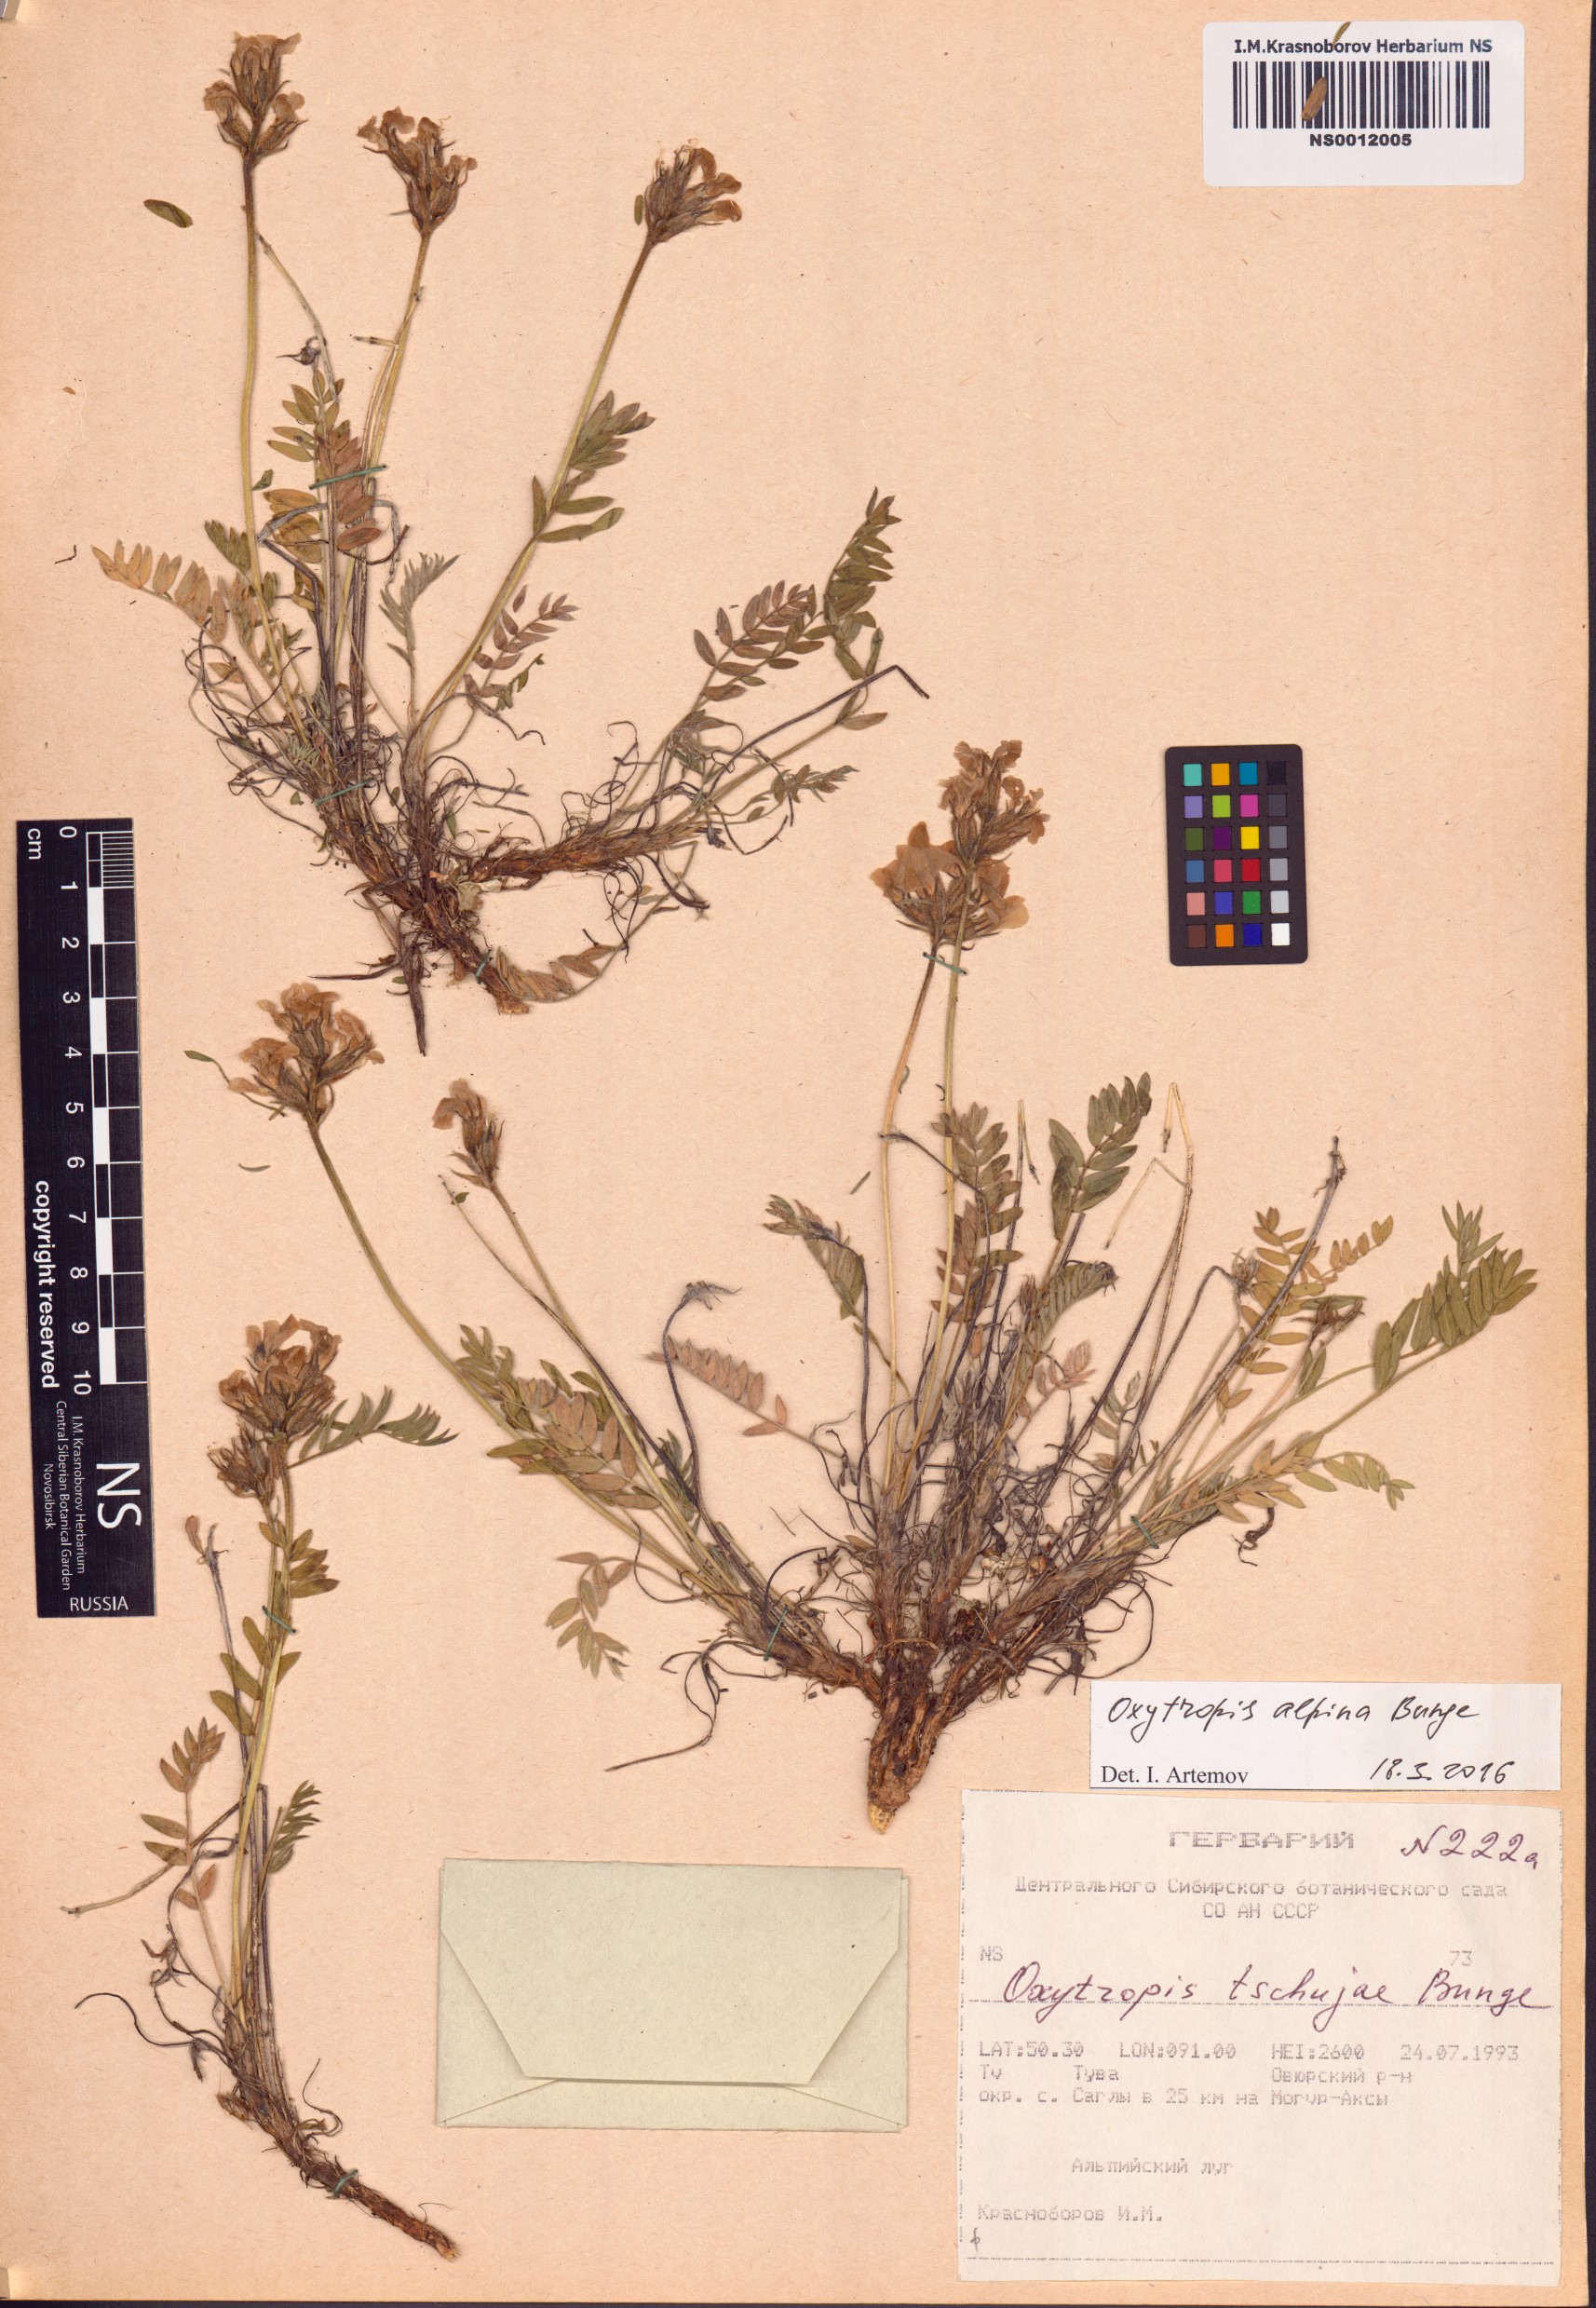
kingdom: Plantae
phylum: Tracheophyta
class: Magnoliopsida
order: Fabales
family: Fabaceae
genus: Oxytropis
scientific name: Oxytropis alpina
